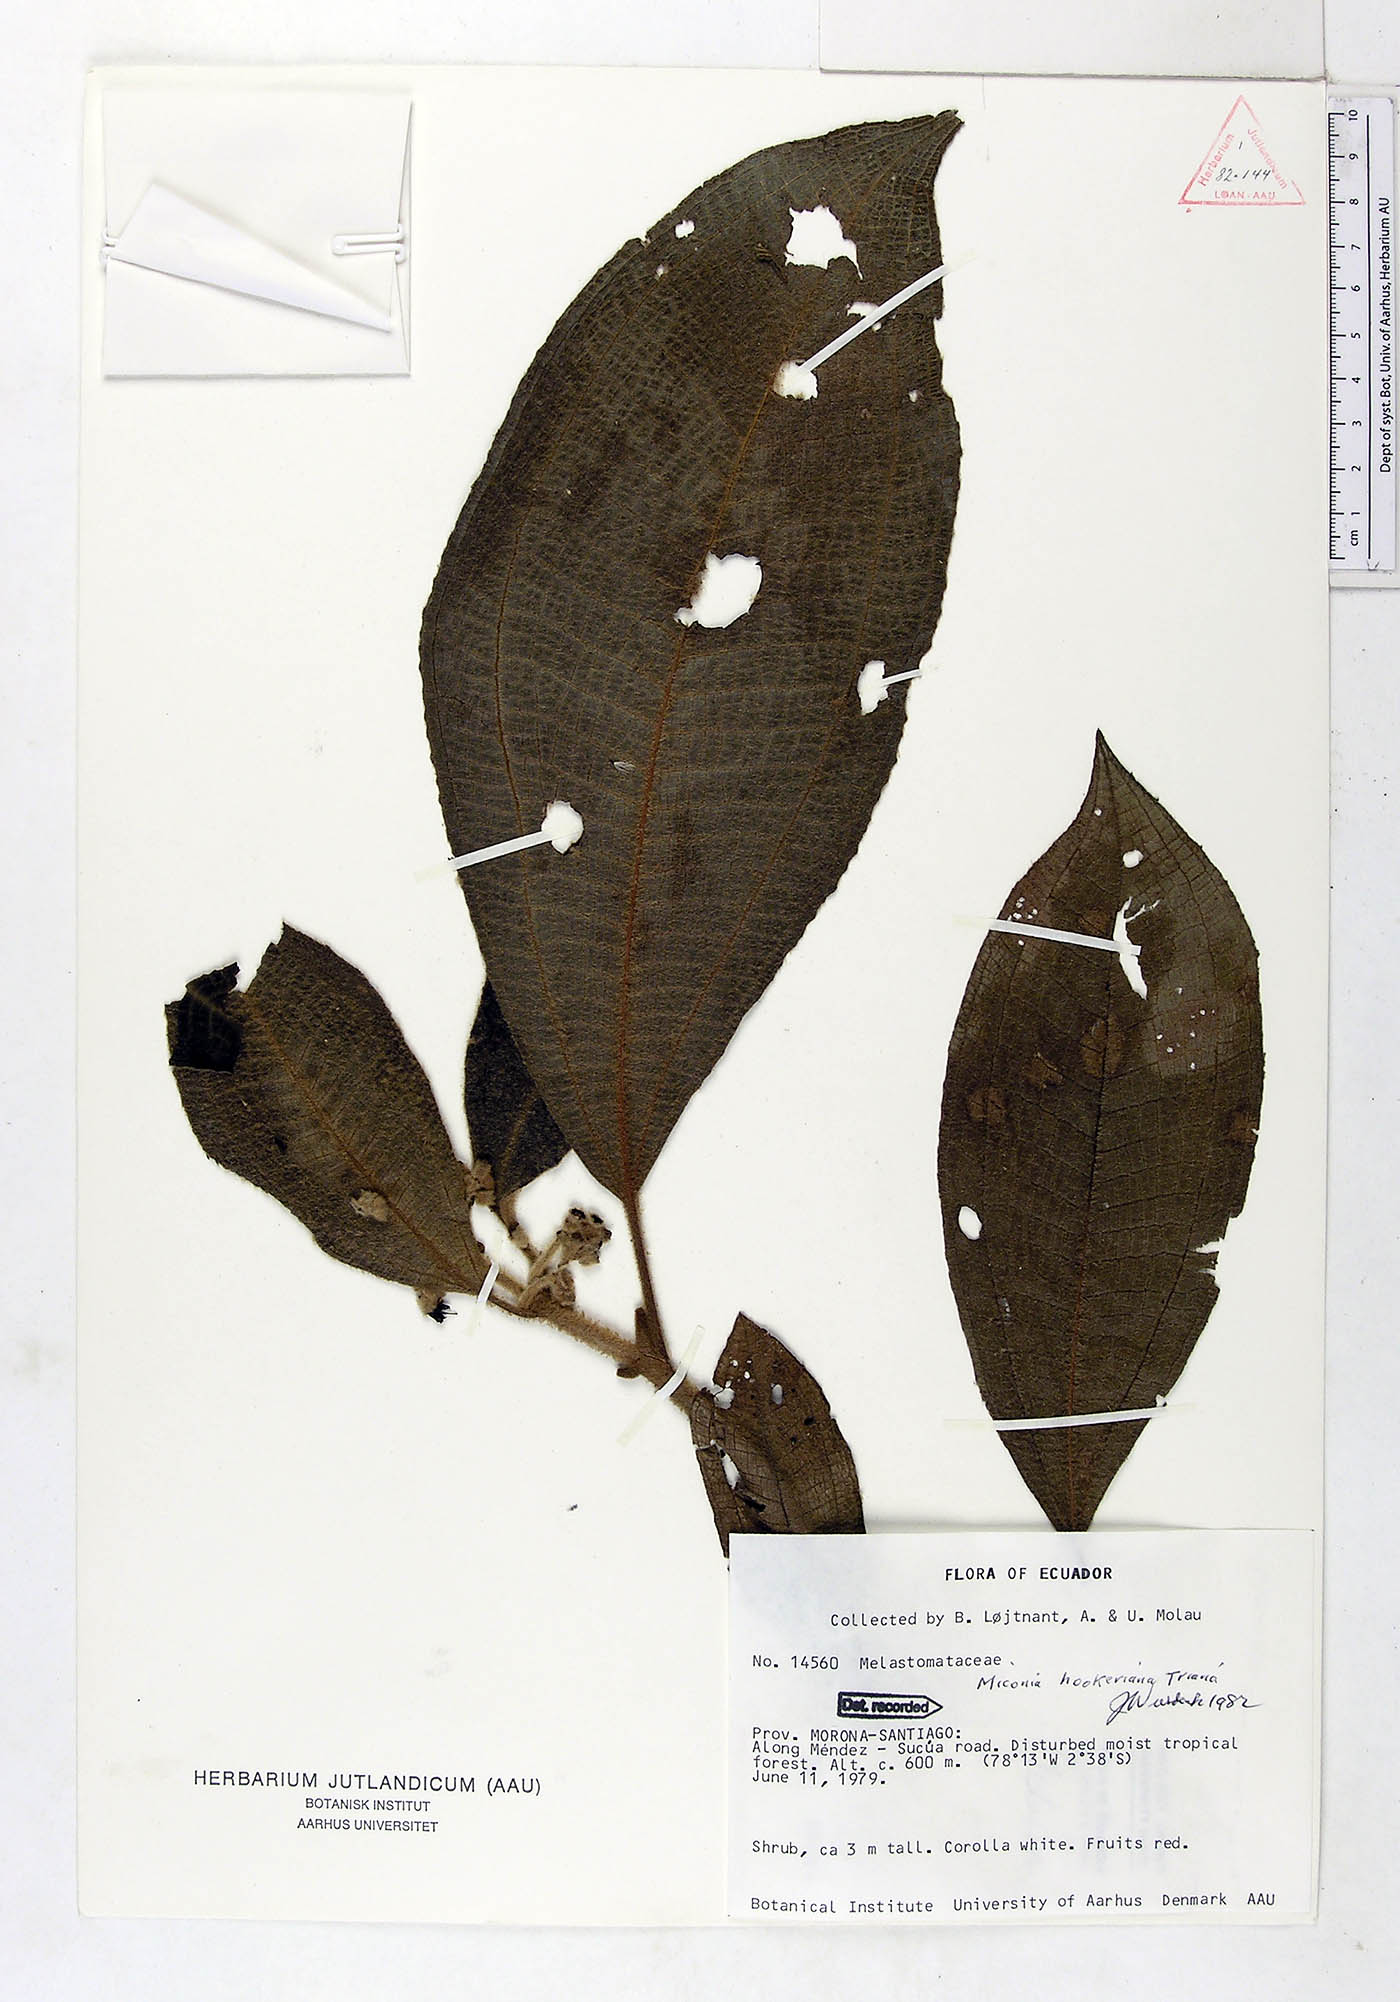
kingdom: Plantae
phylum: Tracheophyta
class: Magnoliopsida
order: Myrtales
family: Melastomataceae
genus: Miconia
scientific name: Miconia hookeriana
